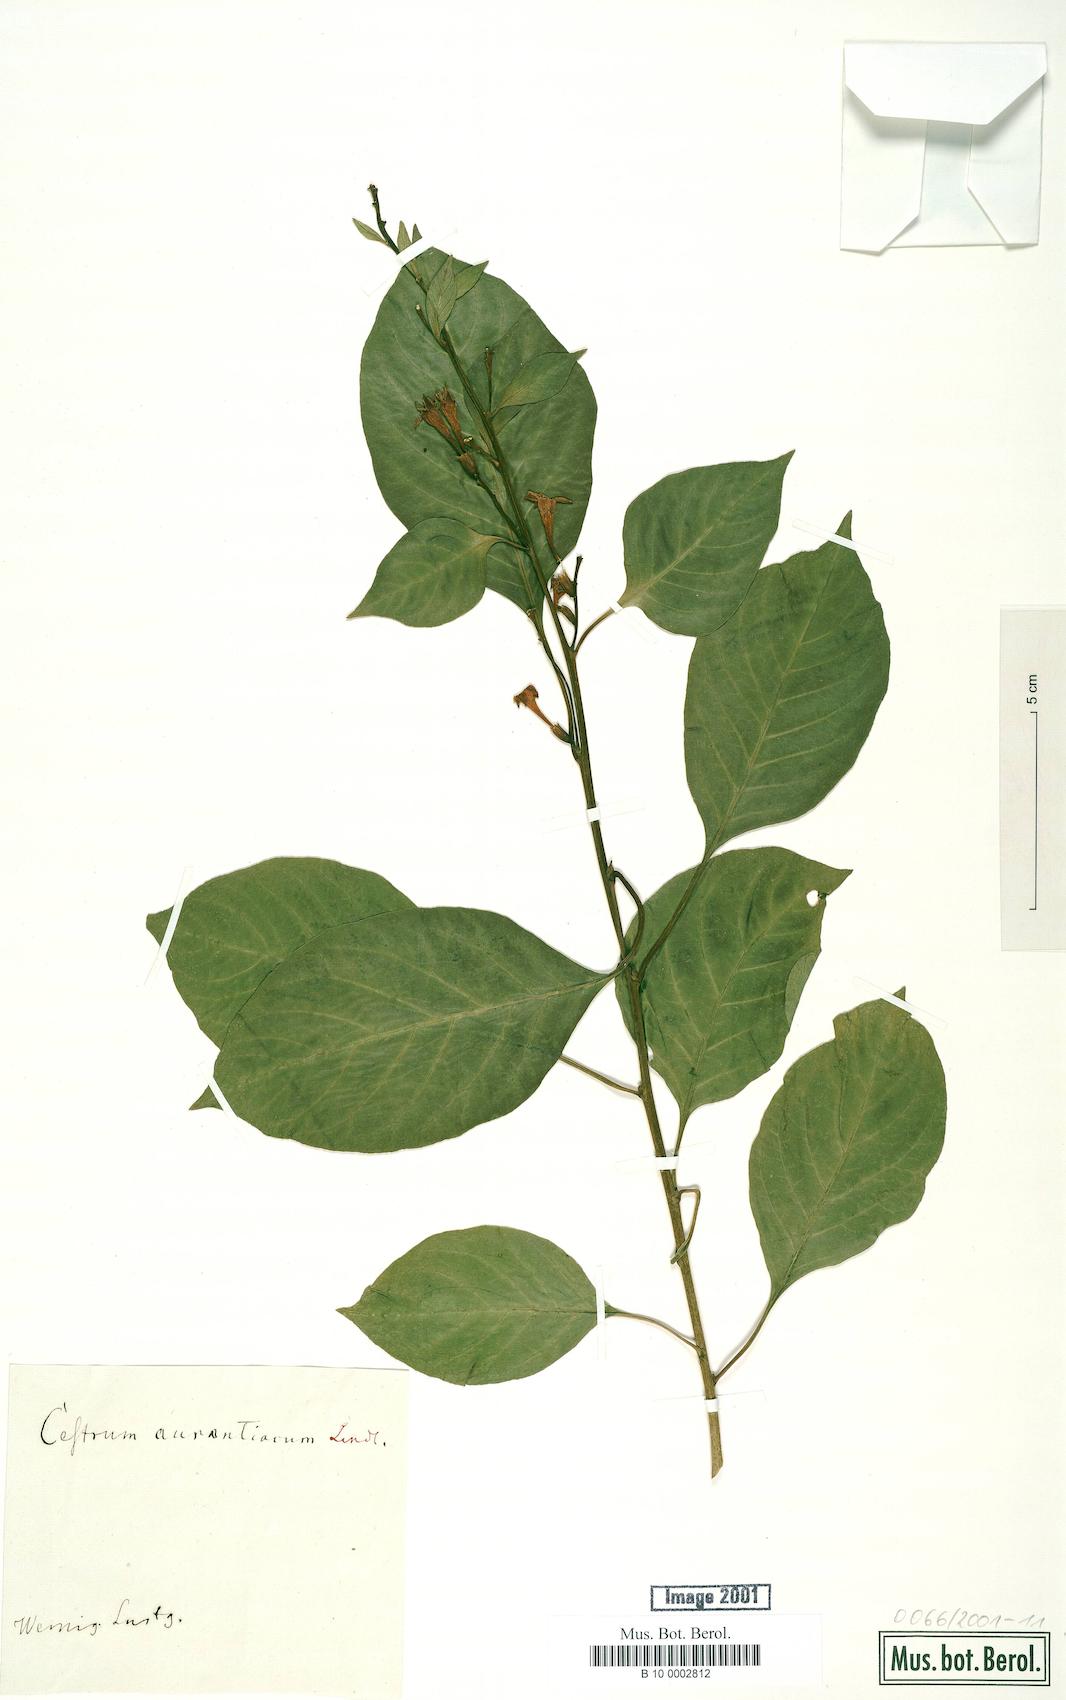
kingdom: Plantae
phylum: Tracheophyta
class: Magnoliopsida
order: Solanales
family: Solanaceae
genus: Cestrum
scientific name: Cestrum aurantiacum
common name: Orange cestrum
